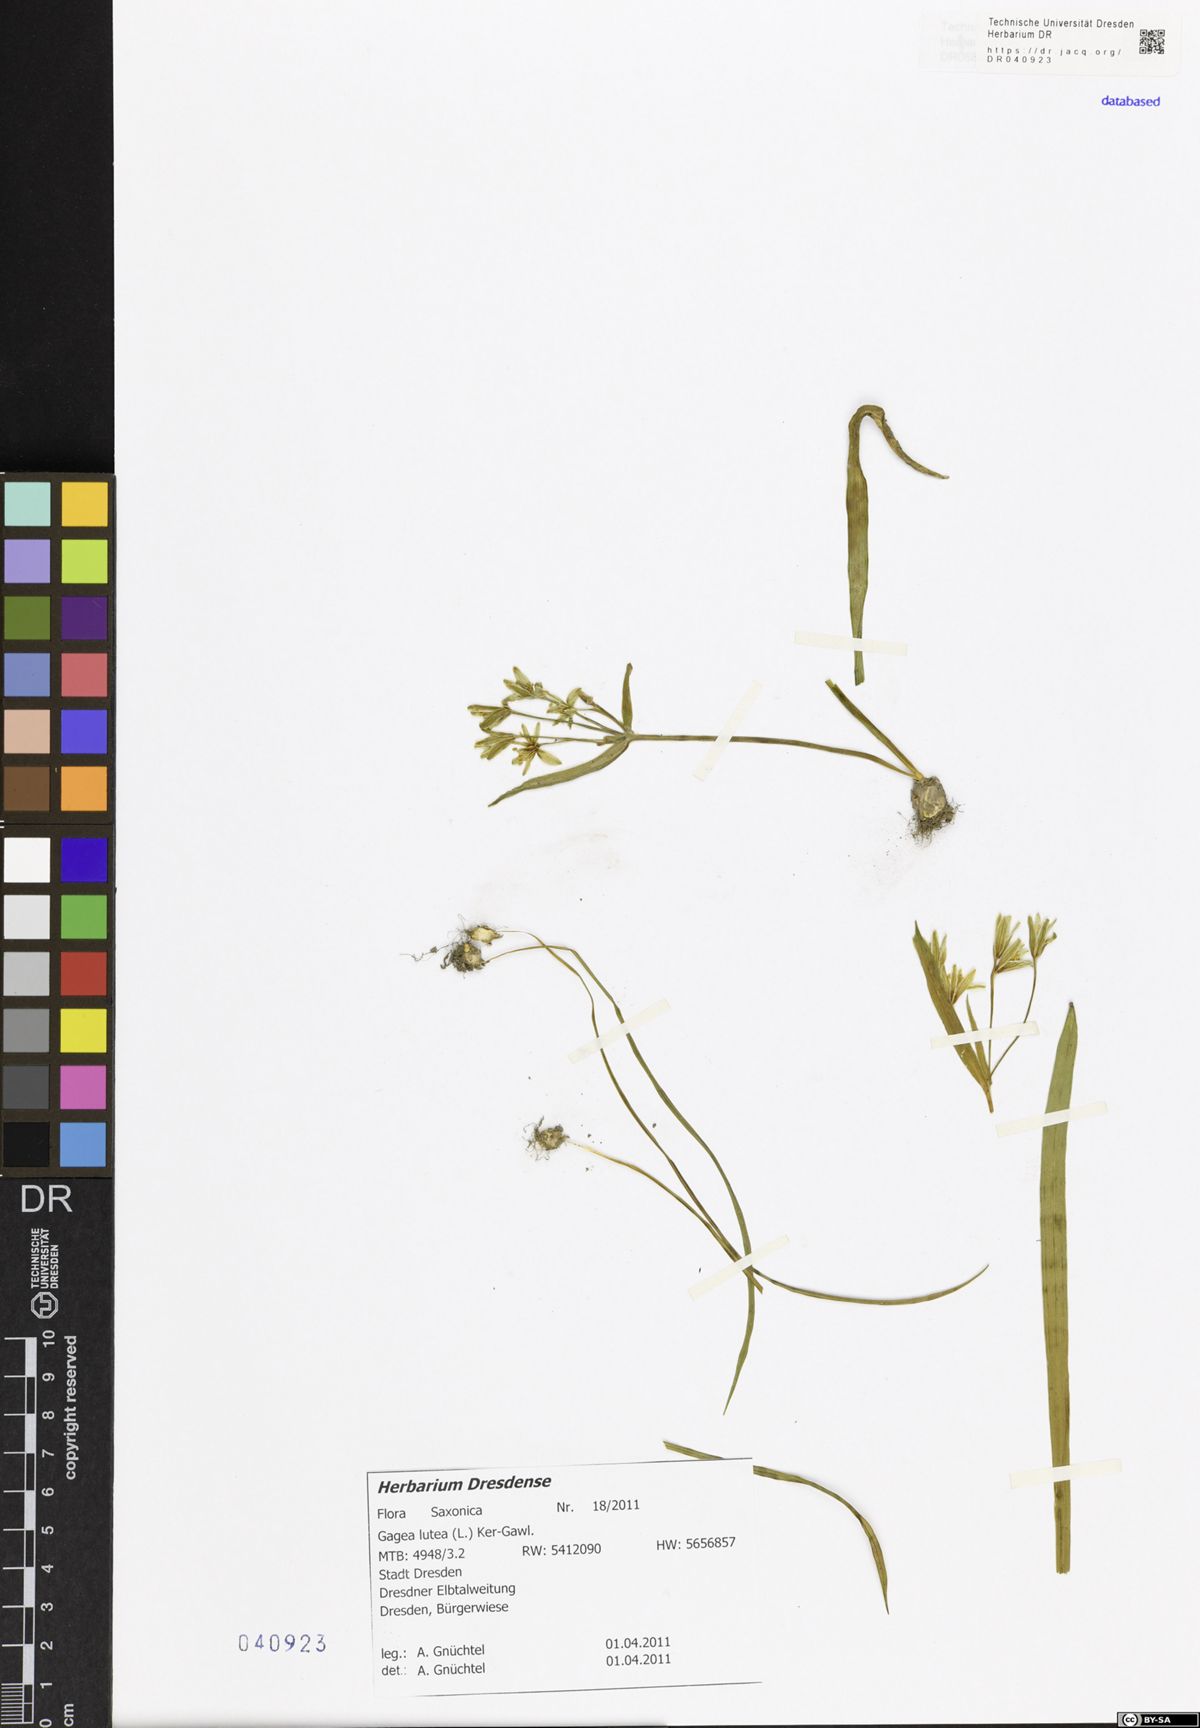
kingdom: Plantae
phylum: Tracheophyta
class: Liliopsida
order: Liliales
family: Liliaceae
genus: Gagea
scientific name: Gagea lutea
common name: Yellow star-of-bethlehem
